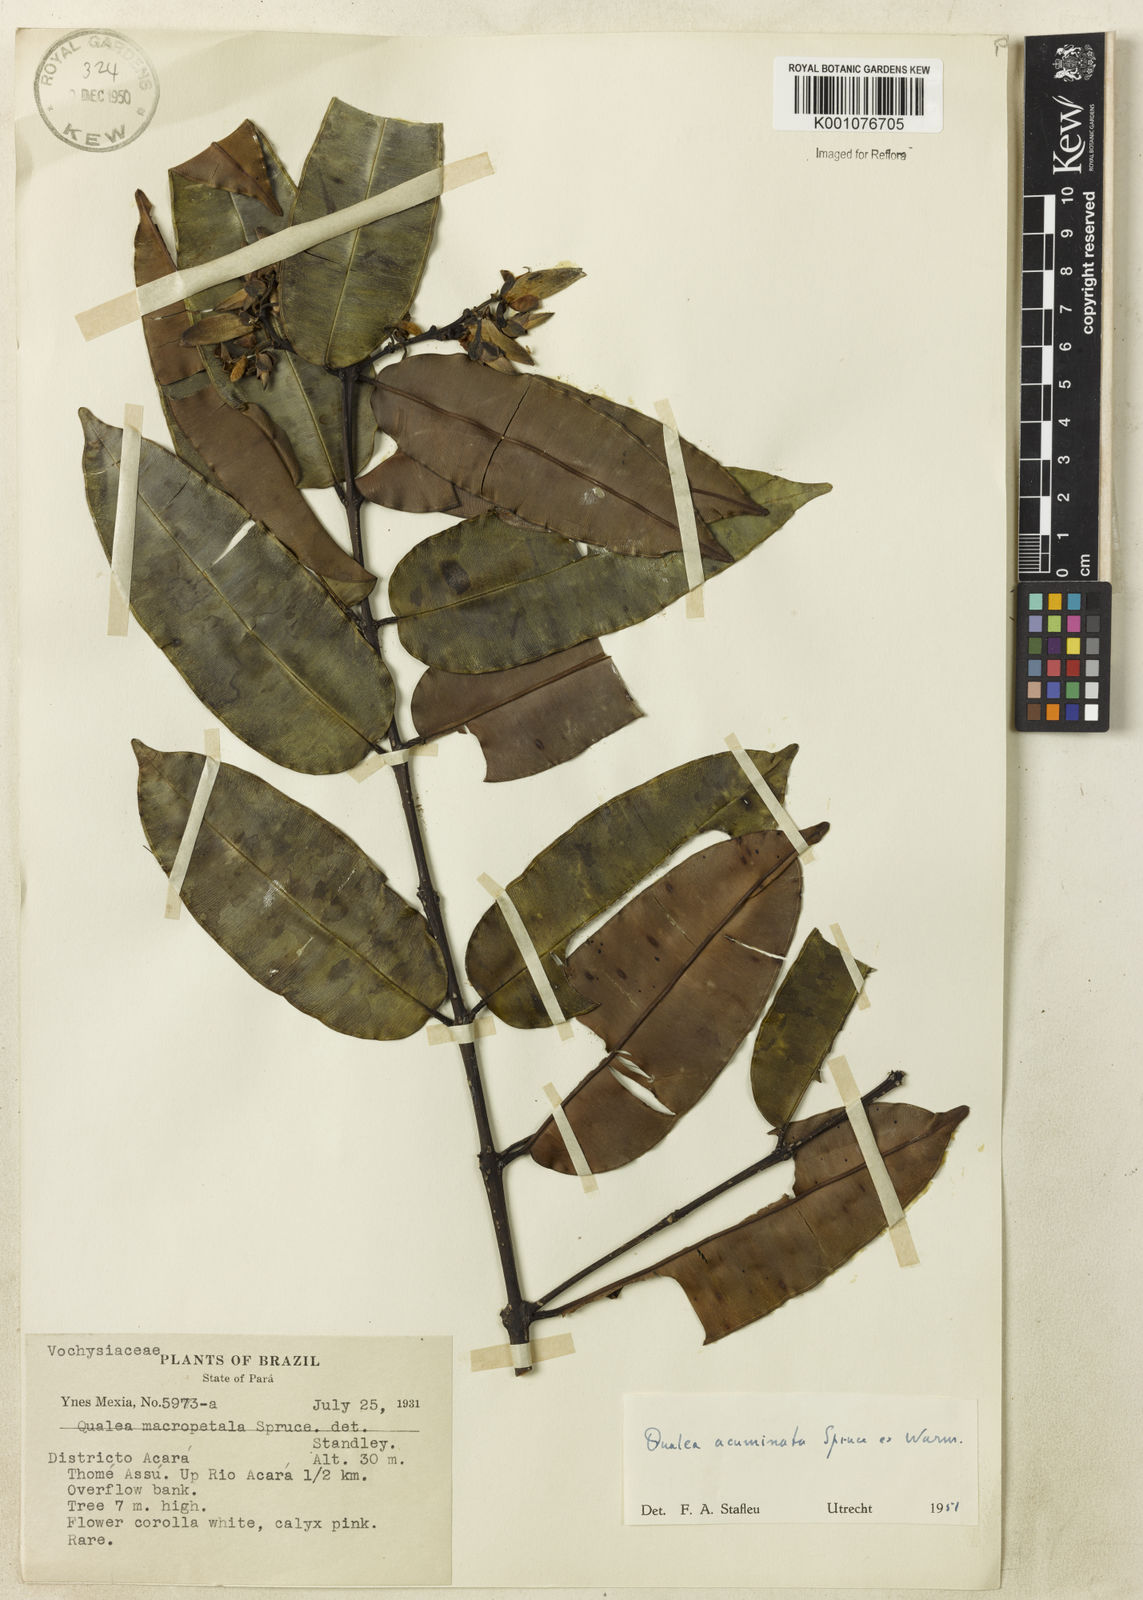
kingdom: Plantae
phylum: Tracheophyta
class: Magnoliopsida
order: Myrtales
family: Vochysiaceae
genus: Qualea
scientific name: Qualea acuminata
